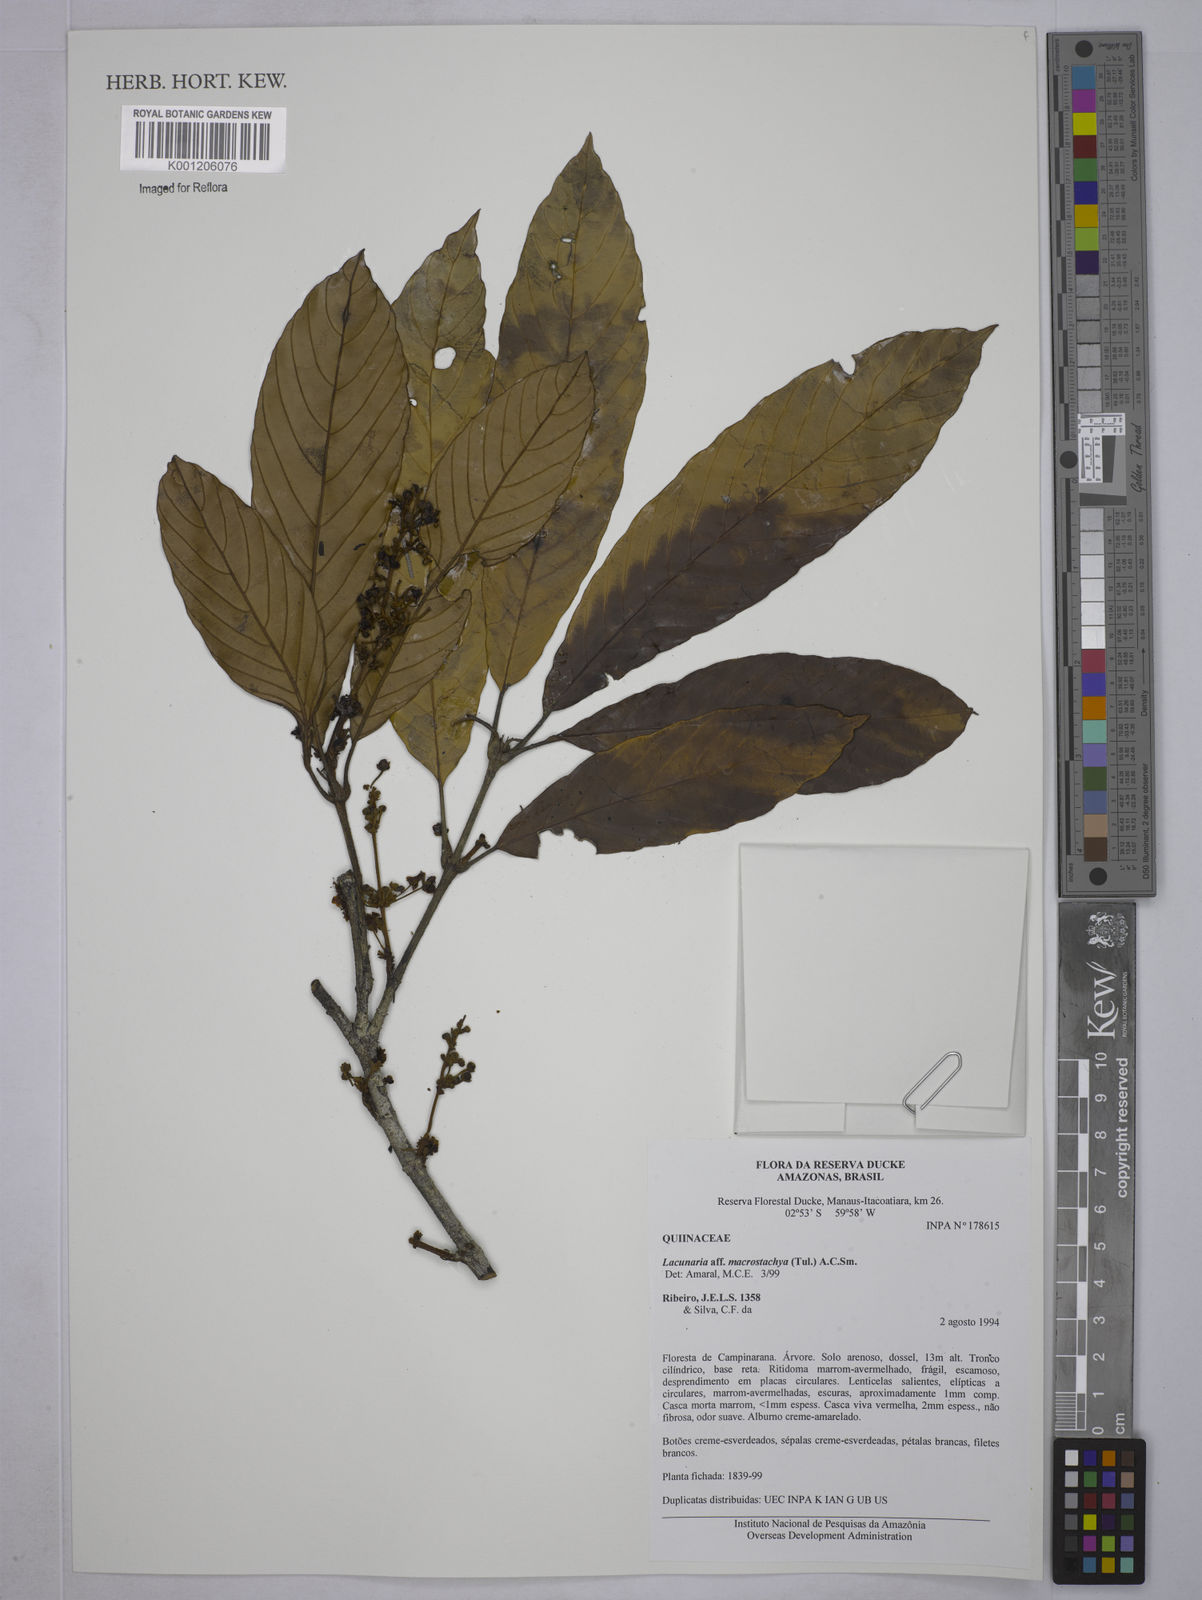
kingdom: Plantae
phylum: Tracheophyta
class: Magnoliopsida
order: Malpighiales
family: Quiinaceae
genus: Lacunaria
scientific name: Lacunaria macrostachya
